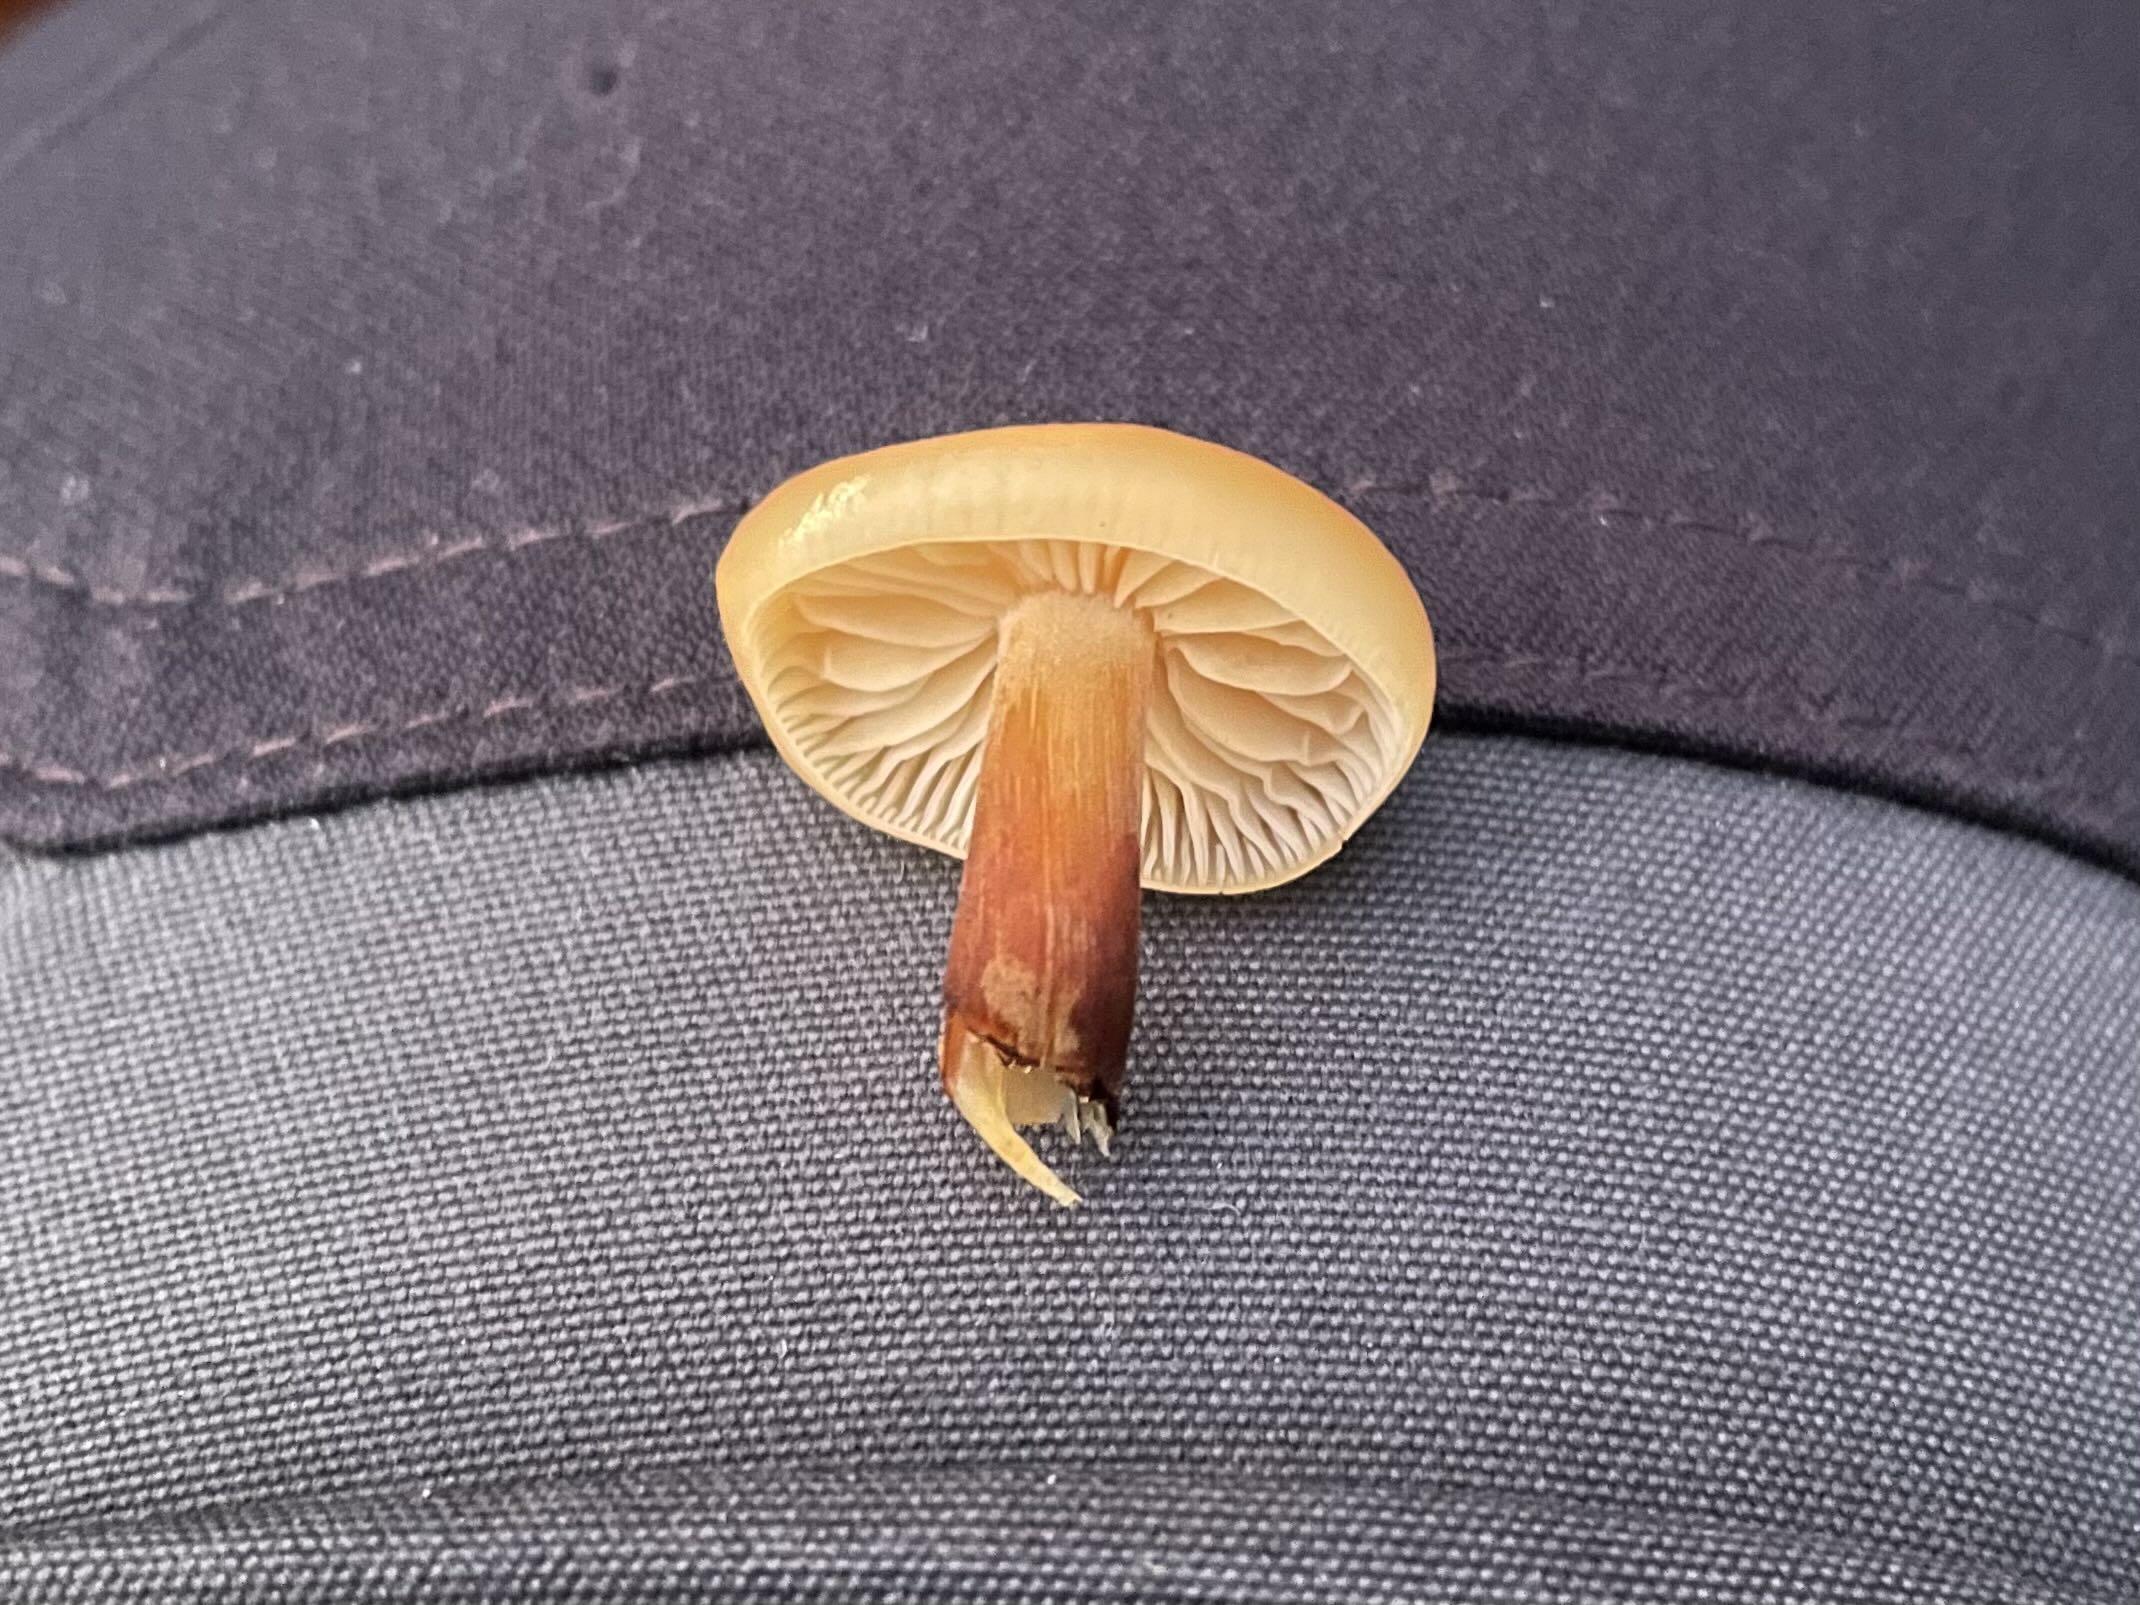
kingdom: Fungi
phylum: Basidiomycota
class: Agaricomycetes
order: Agaricales
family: Physalacriaceae
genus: Flammulina
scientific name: Flammulina
